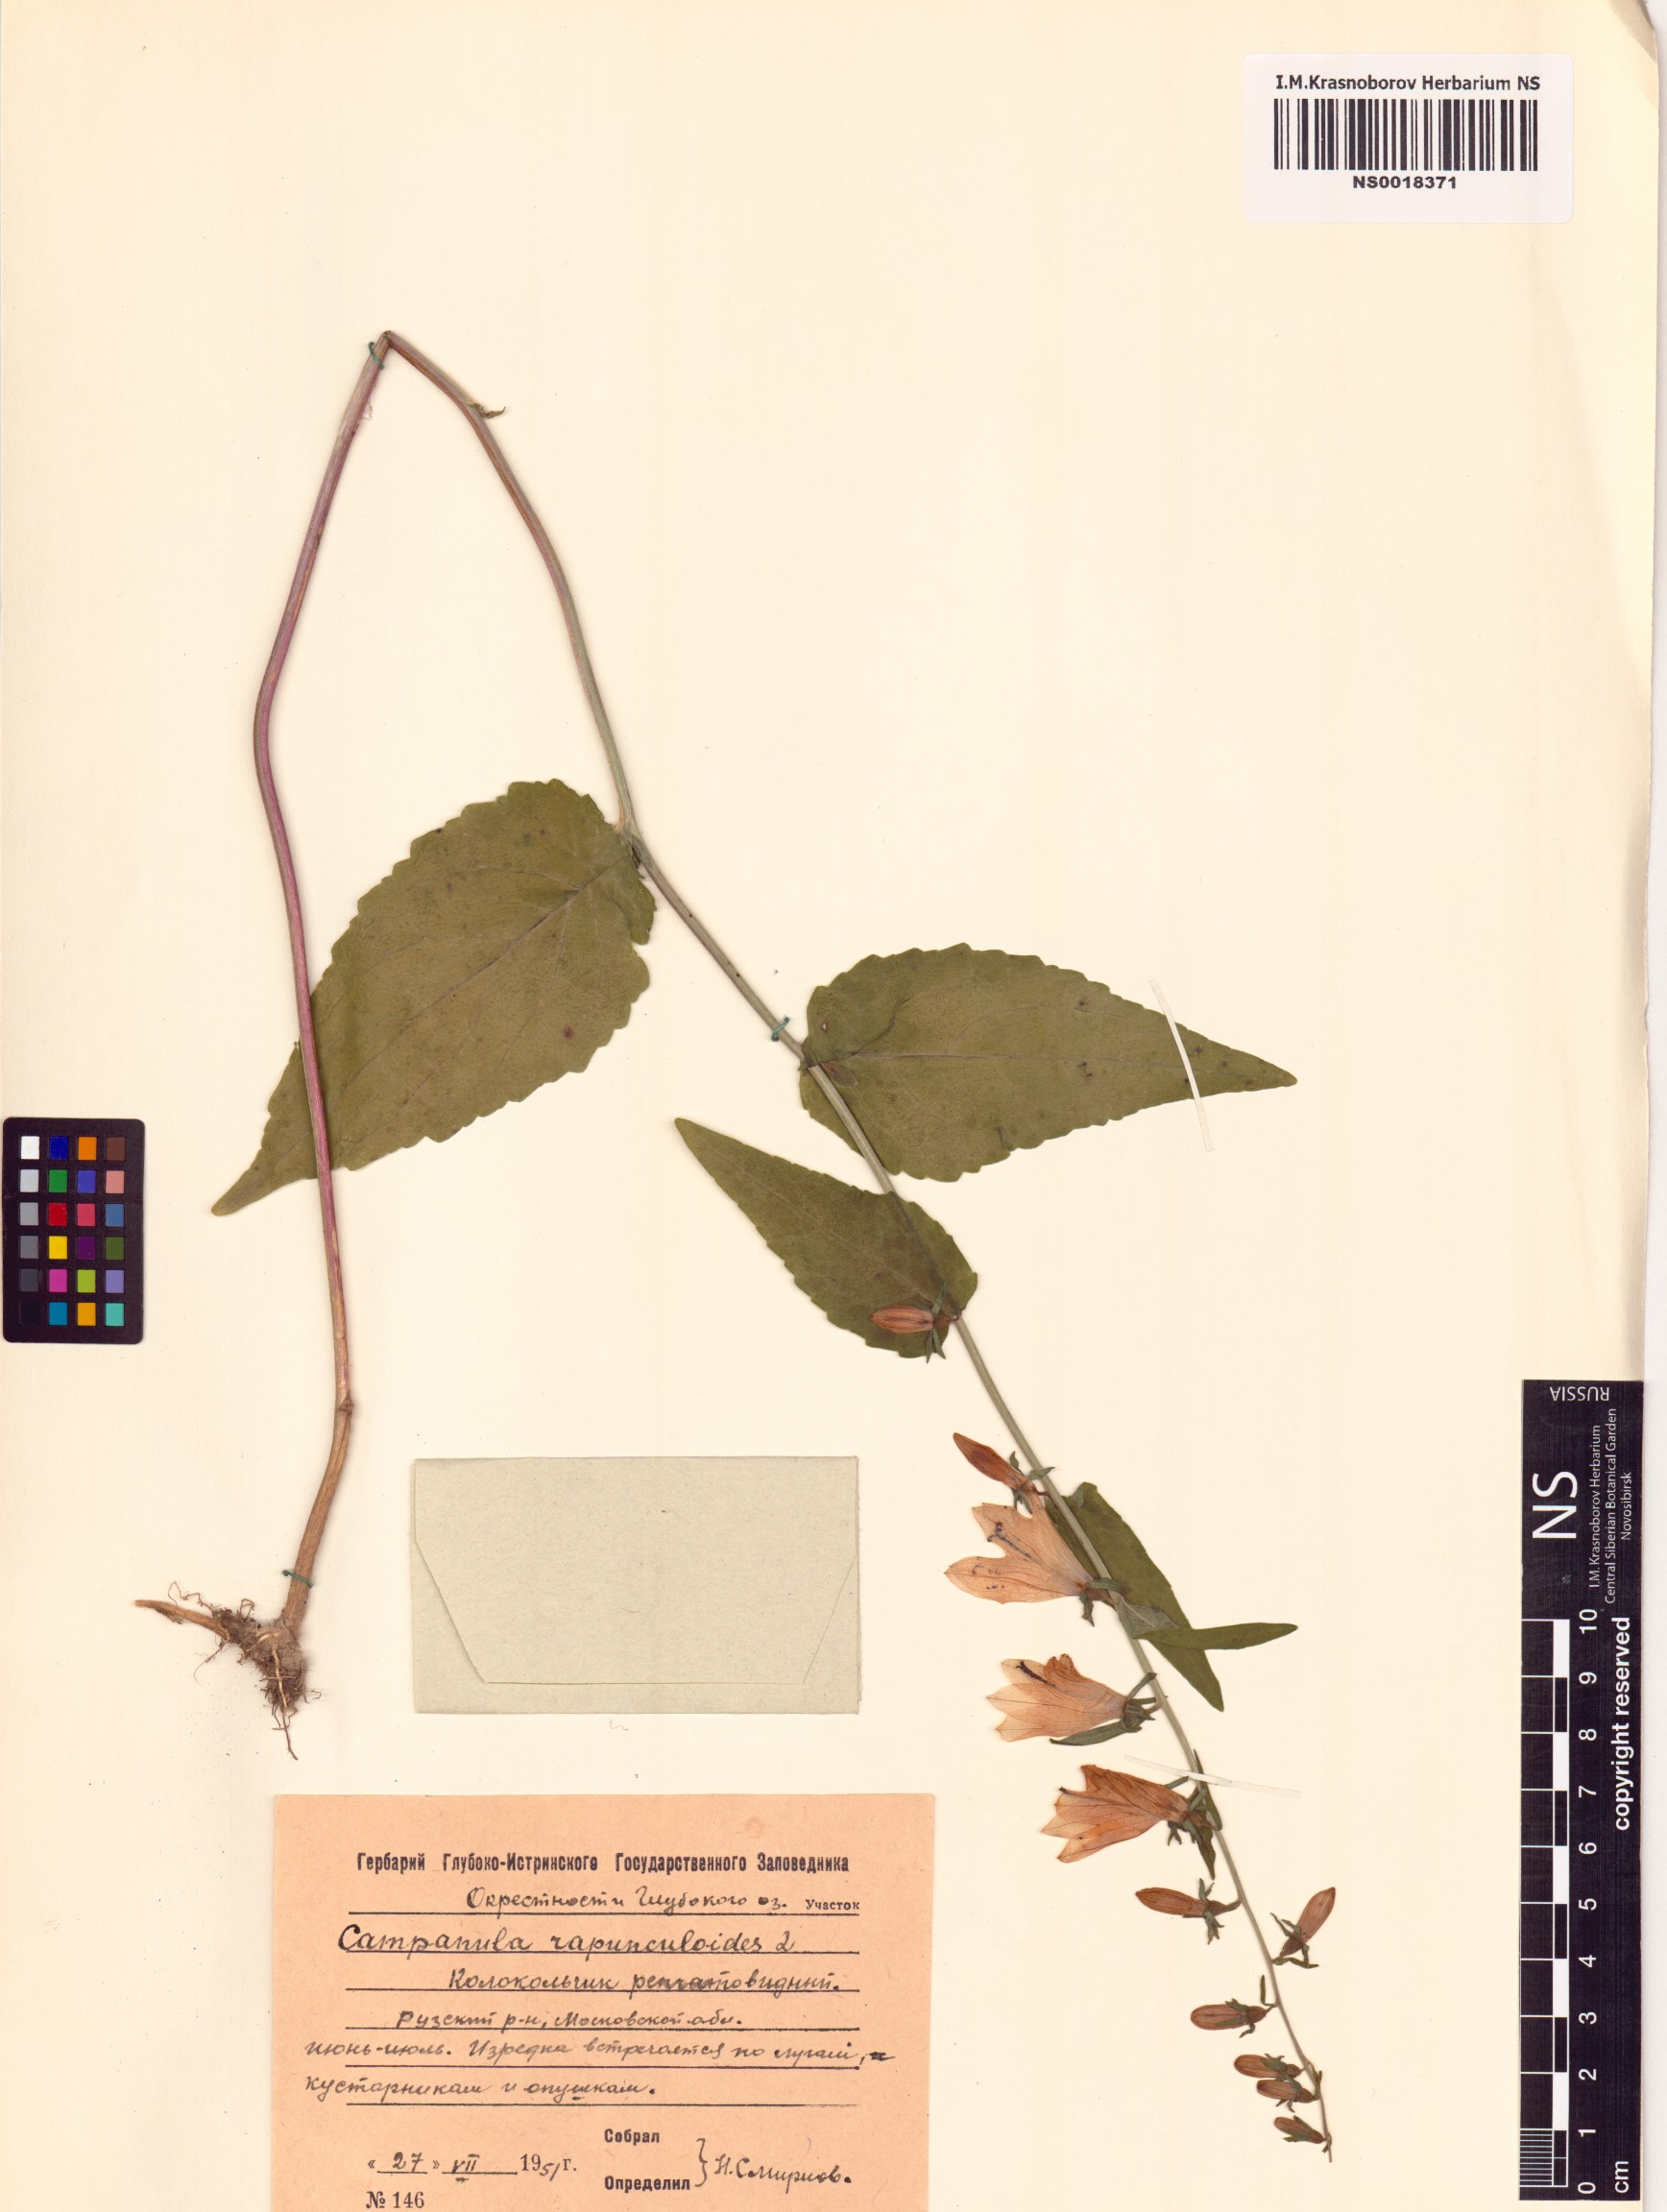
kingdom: Plantae
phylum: Tracheophyta
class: Magnoliopsida
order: Asterales
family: Campanulaceae
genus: Campanula
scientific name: Campanula rapunculoides
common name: Creeping bellflower
